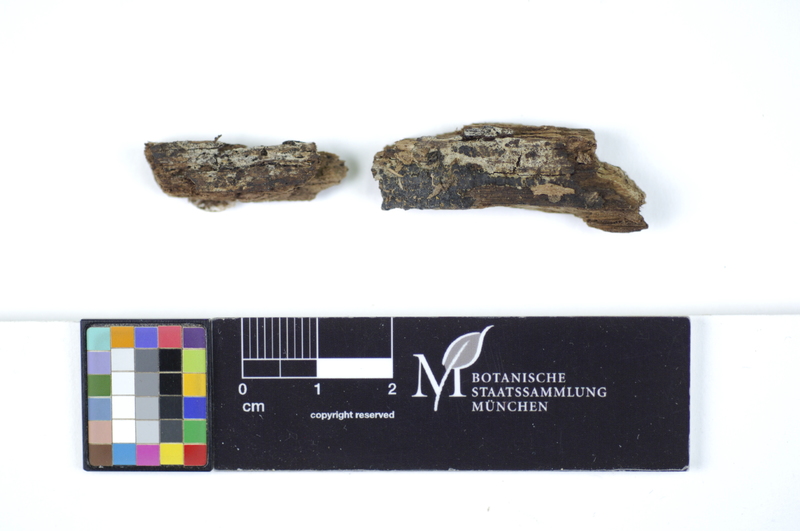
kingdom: Fungi
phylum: Basidiomycota
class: Agaricomycetes
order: Polyporales
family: Hyphodermataceae
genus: Hyphoderma
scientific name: Hyphoderma incrustatum
